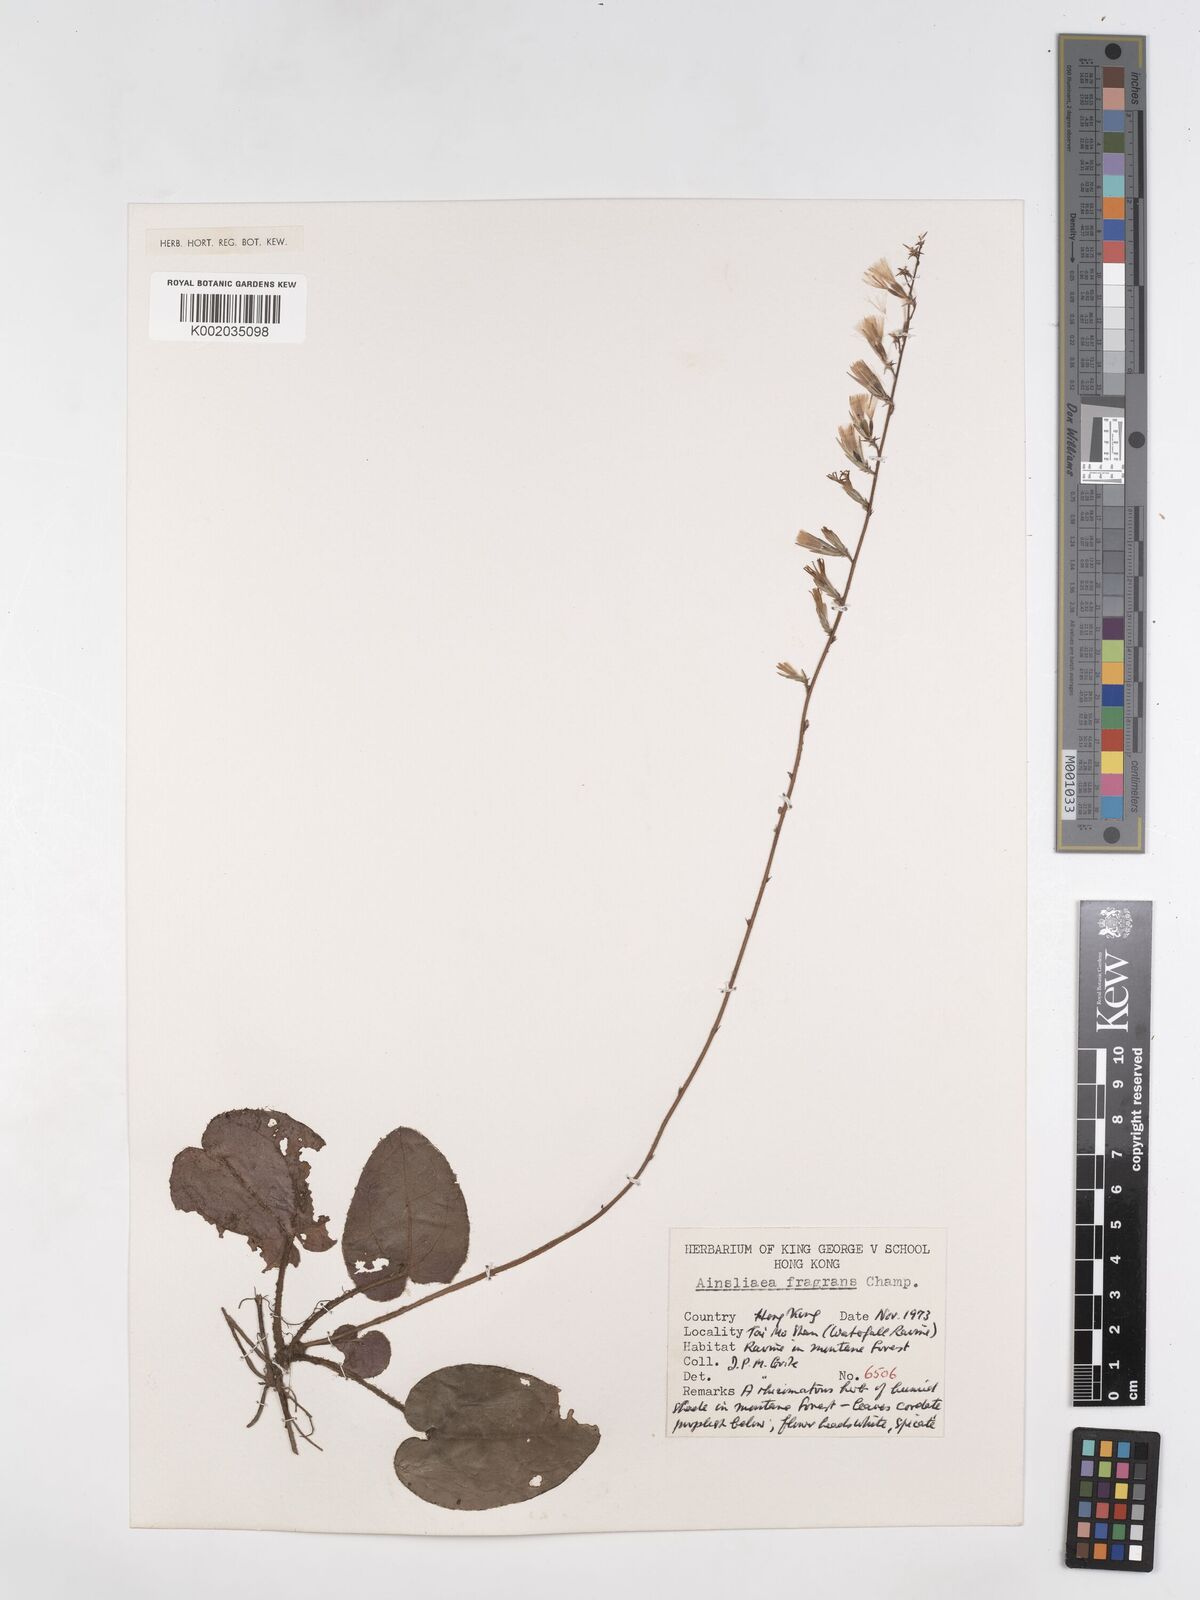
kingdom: Plantae
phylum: Tracheophyta
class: Magnoliopsida
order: Asterales
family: Asteraceae
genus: Ainsliaea
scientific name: Ainsliaea fragrans
